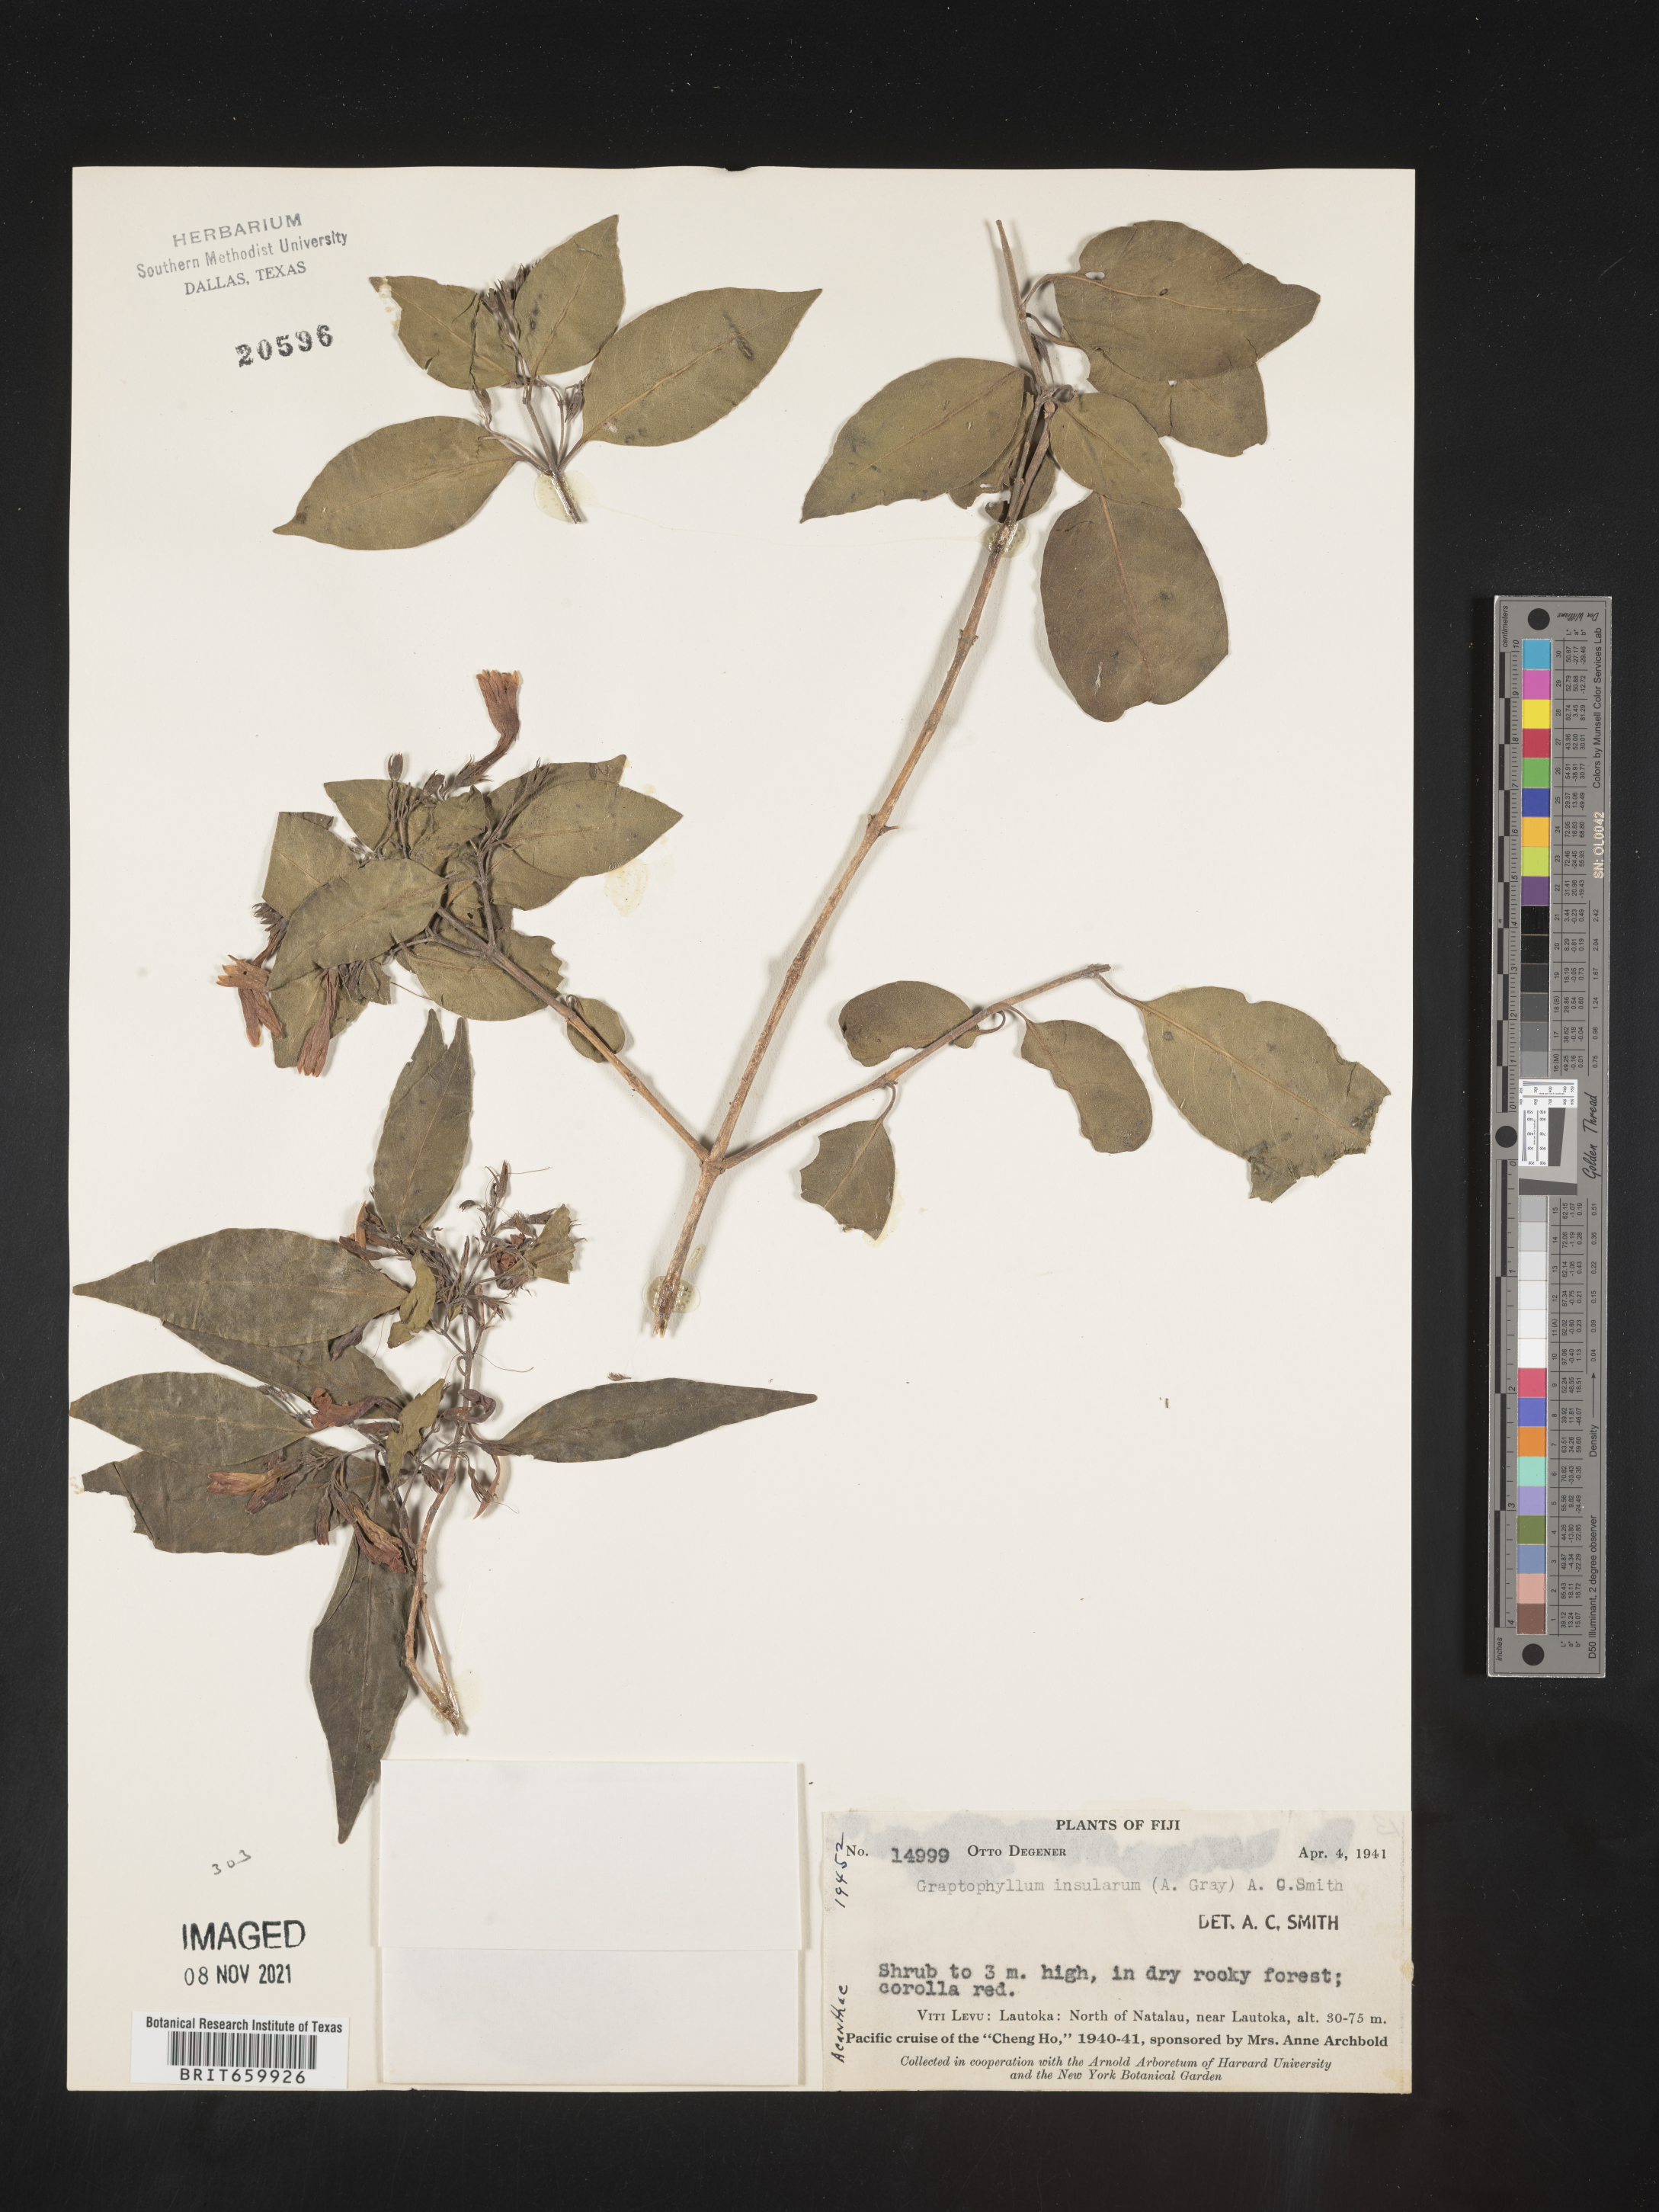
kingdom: Plantae
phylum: Tracheophyta
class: Magnoliopsida
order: Lamiales
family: Acanthaceae
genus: Graptophyllum
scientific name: Graptophyllum
